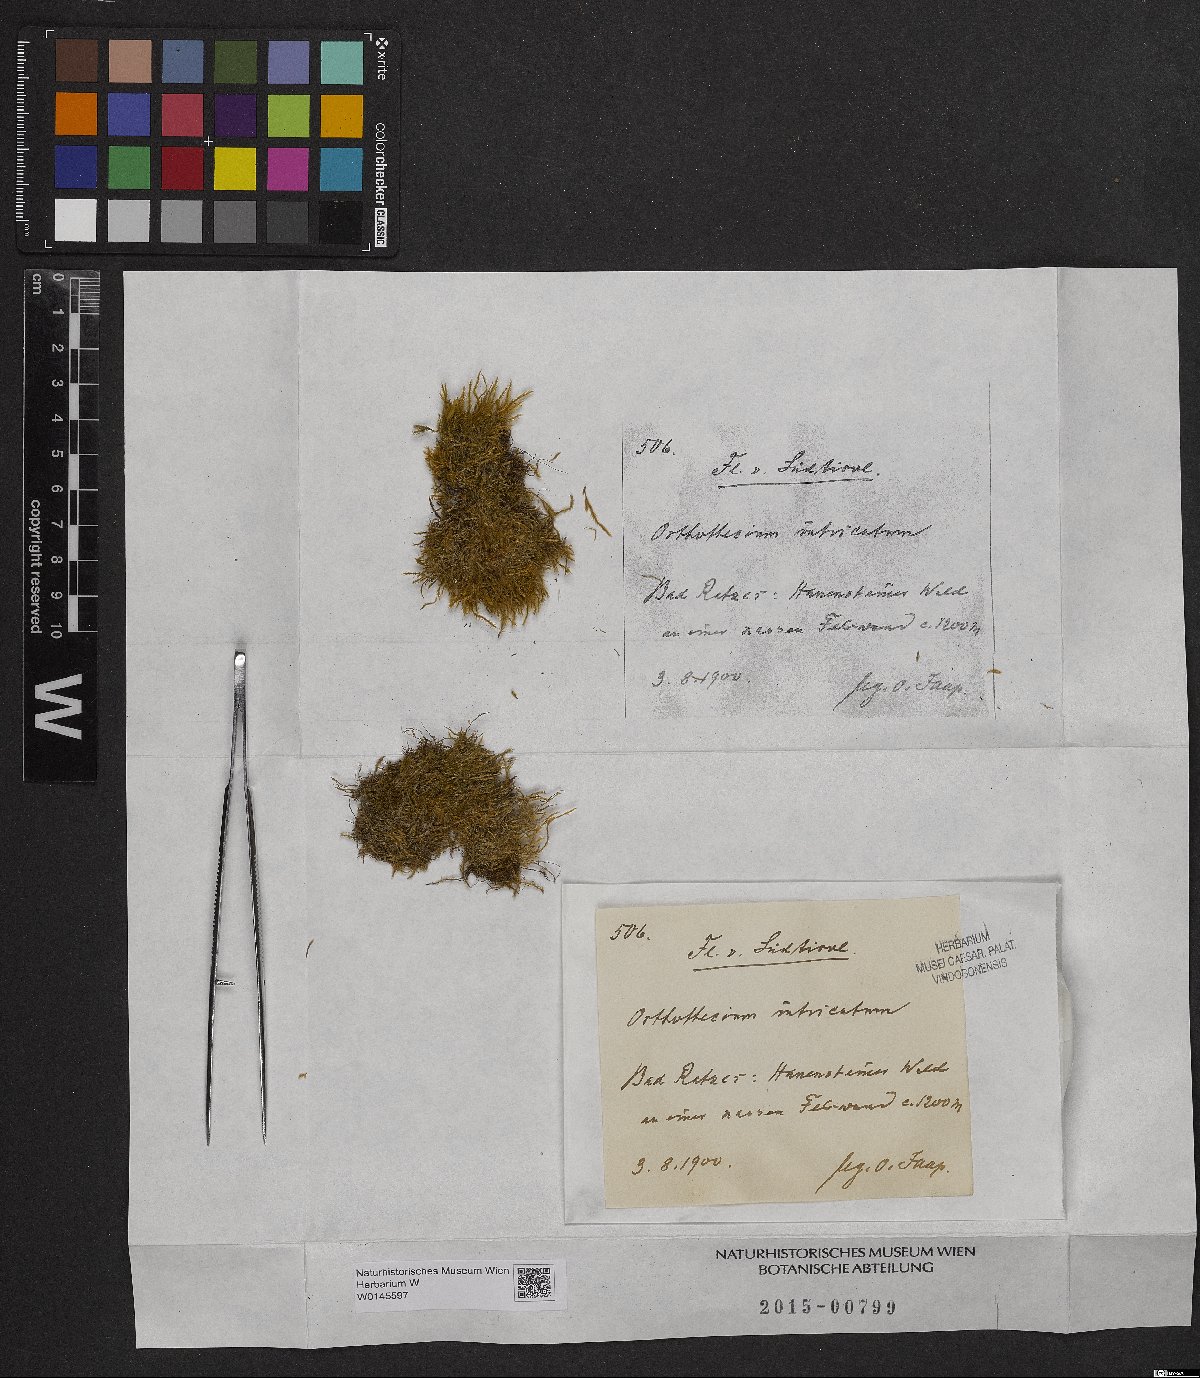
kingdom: Plantae
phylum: Bryophyta
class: Bryopsida
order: Hypnales
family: Plagiotheciaceae
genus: Orthothecium
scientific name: Orthothecium intricatum
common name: Fine-leaved erect-capsule moss
